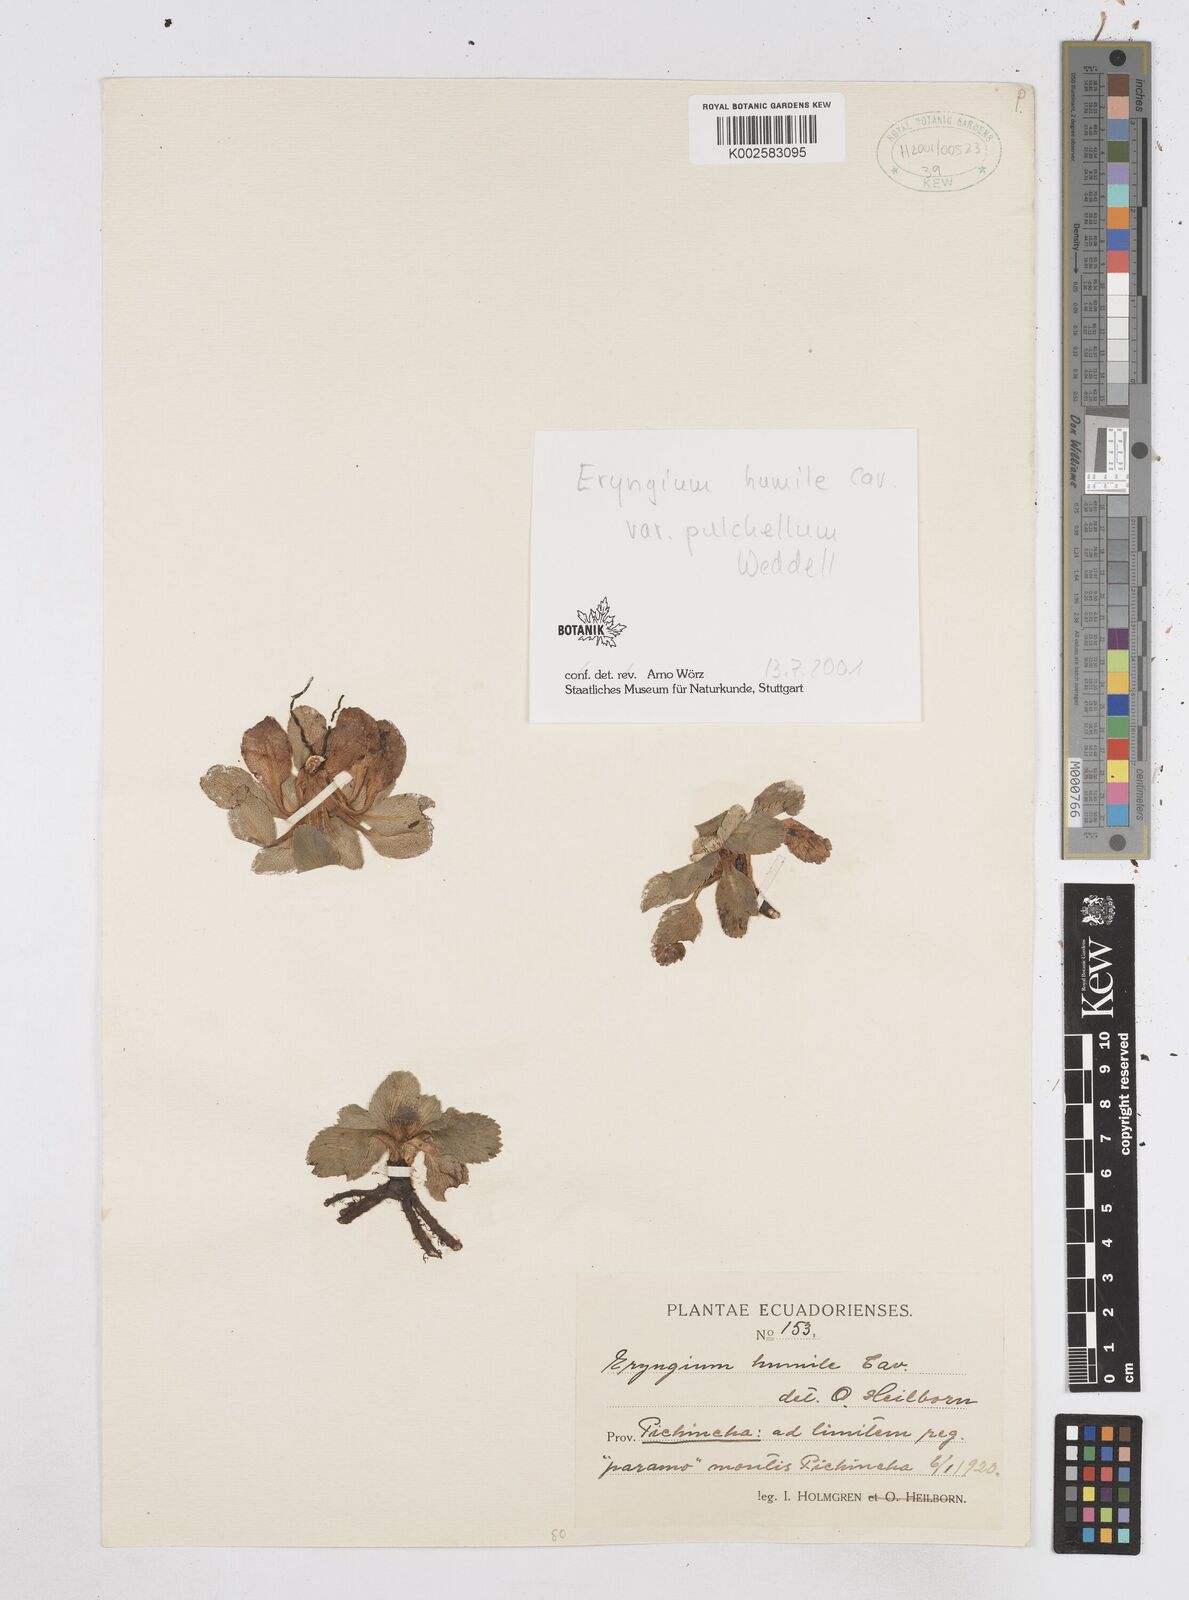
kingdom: Plantae
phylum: Tracheophyta
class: Magnoliopsida
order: Apiales
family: Apiaceae
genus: Eryngium
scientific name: Eryngium humile
